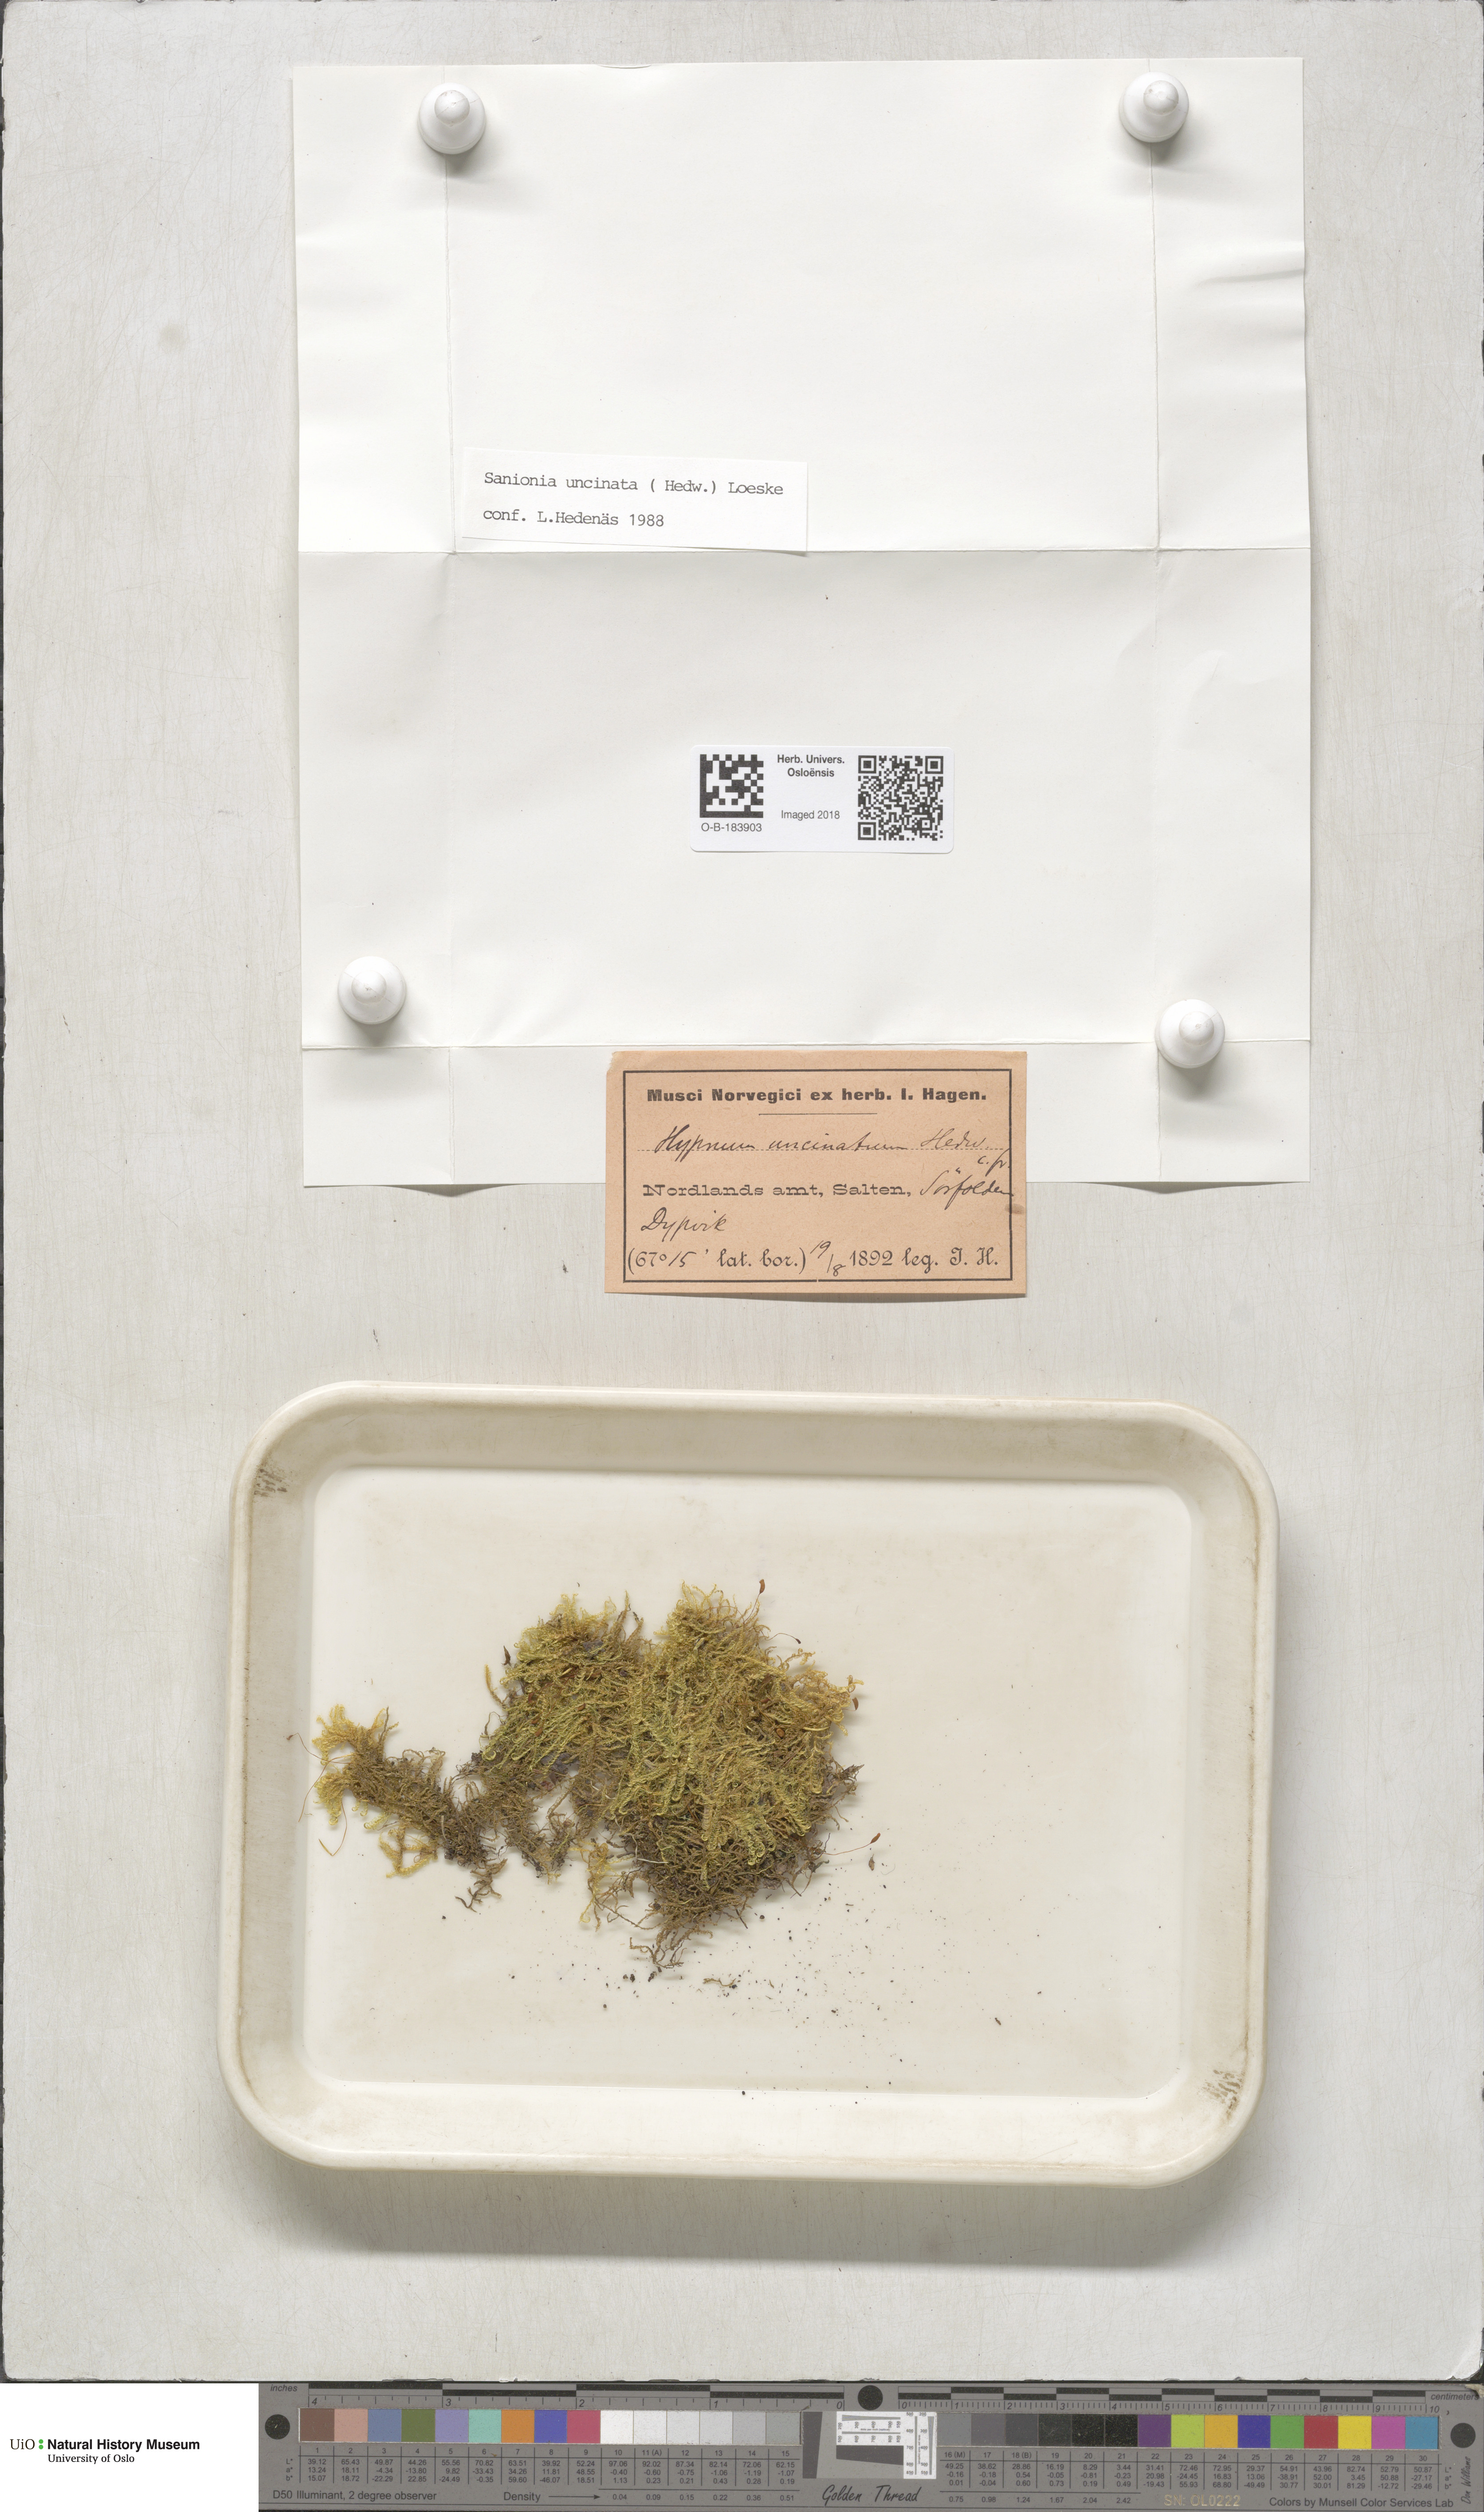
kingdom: Plantae
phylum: Bryophyta
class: Bryopsida
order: Hypnales
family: Scorpidiaceae
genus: Sanionia
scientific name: Sanionia uncinata
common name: Sickle moss
